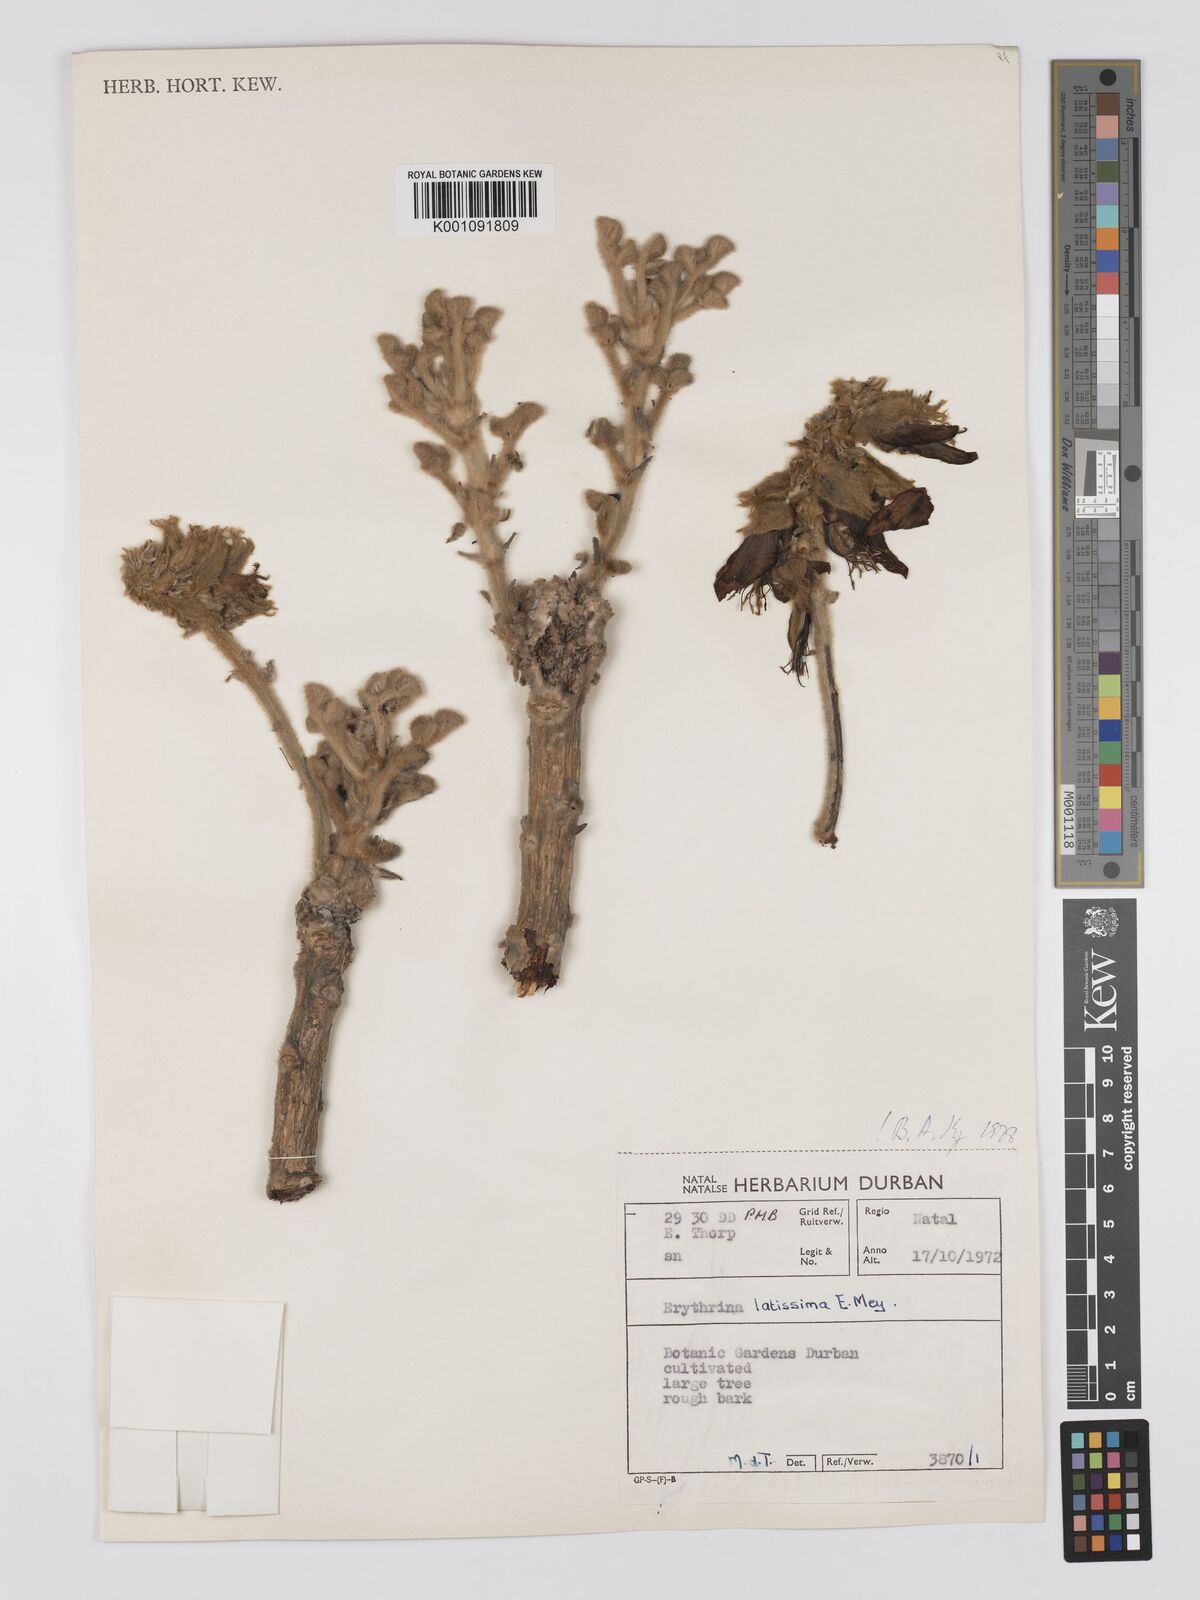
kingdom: Plantae
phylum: Tracheophyta
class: Magnoliopsida
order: Fabales
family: Fabaceae
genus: Erythrina
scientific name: Erythrina latissima
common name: Broad-leaved coral tree
